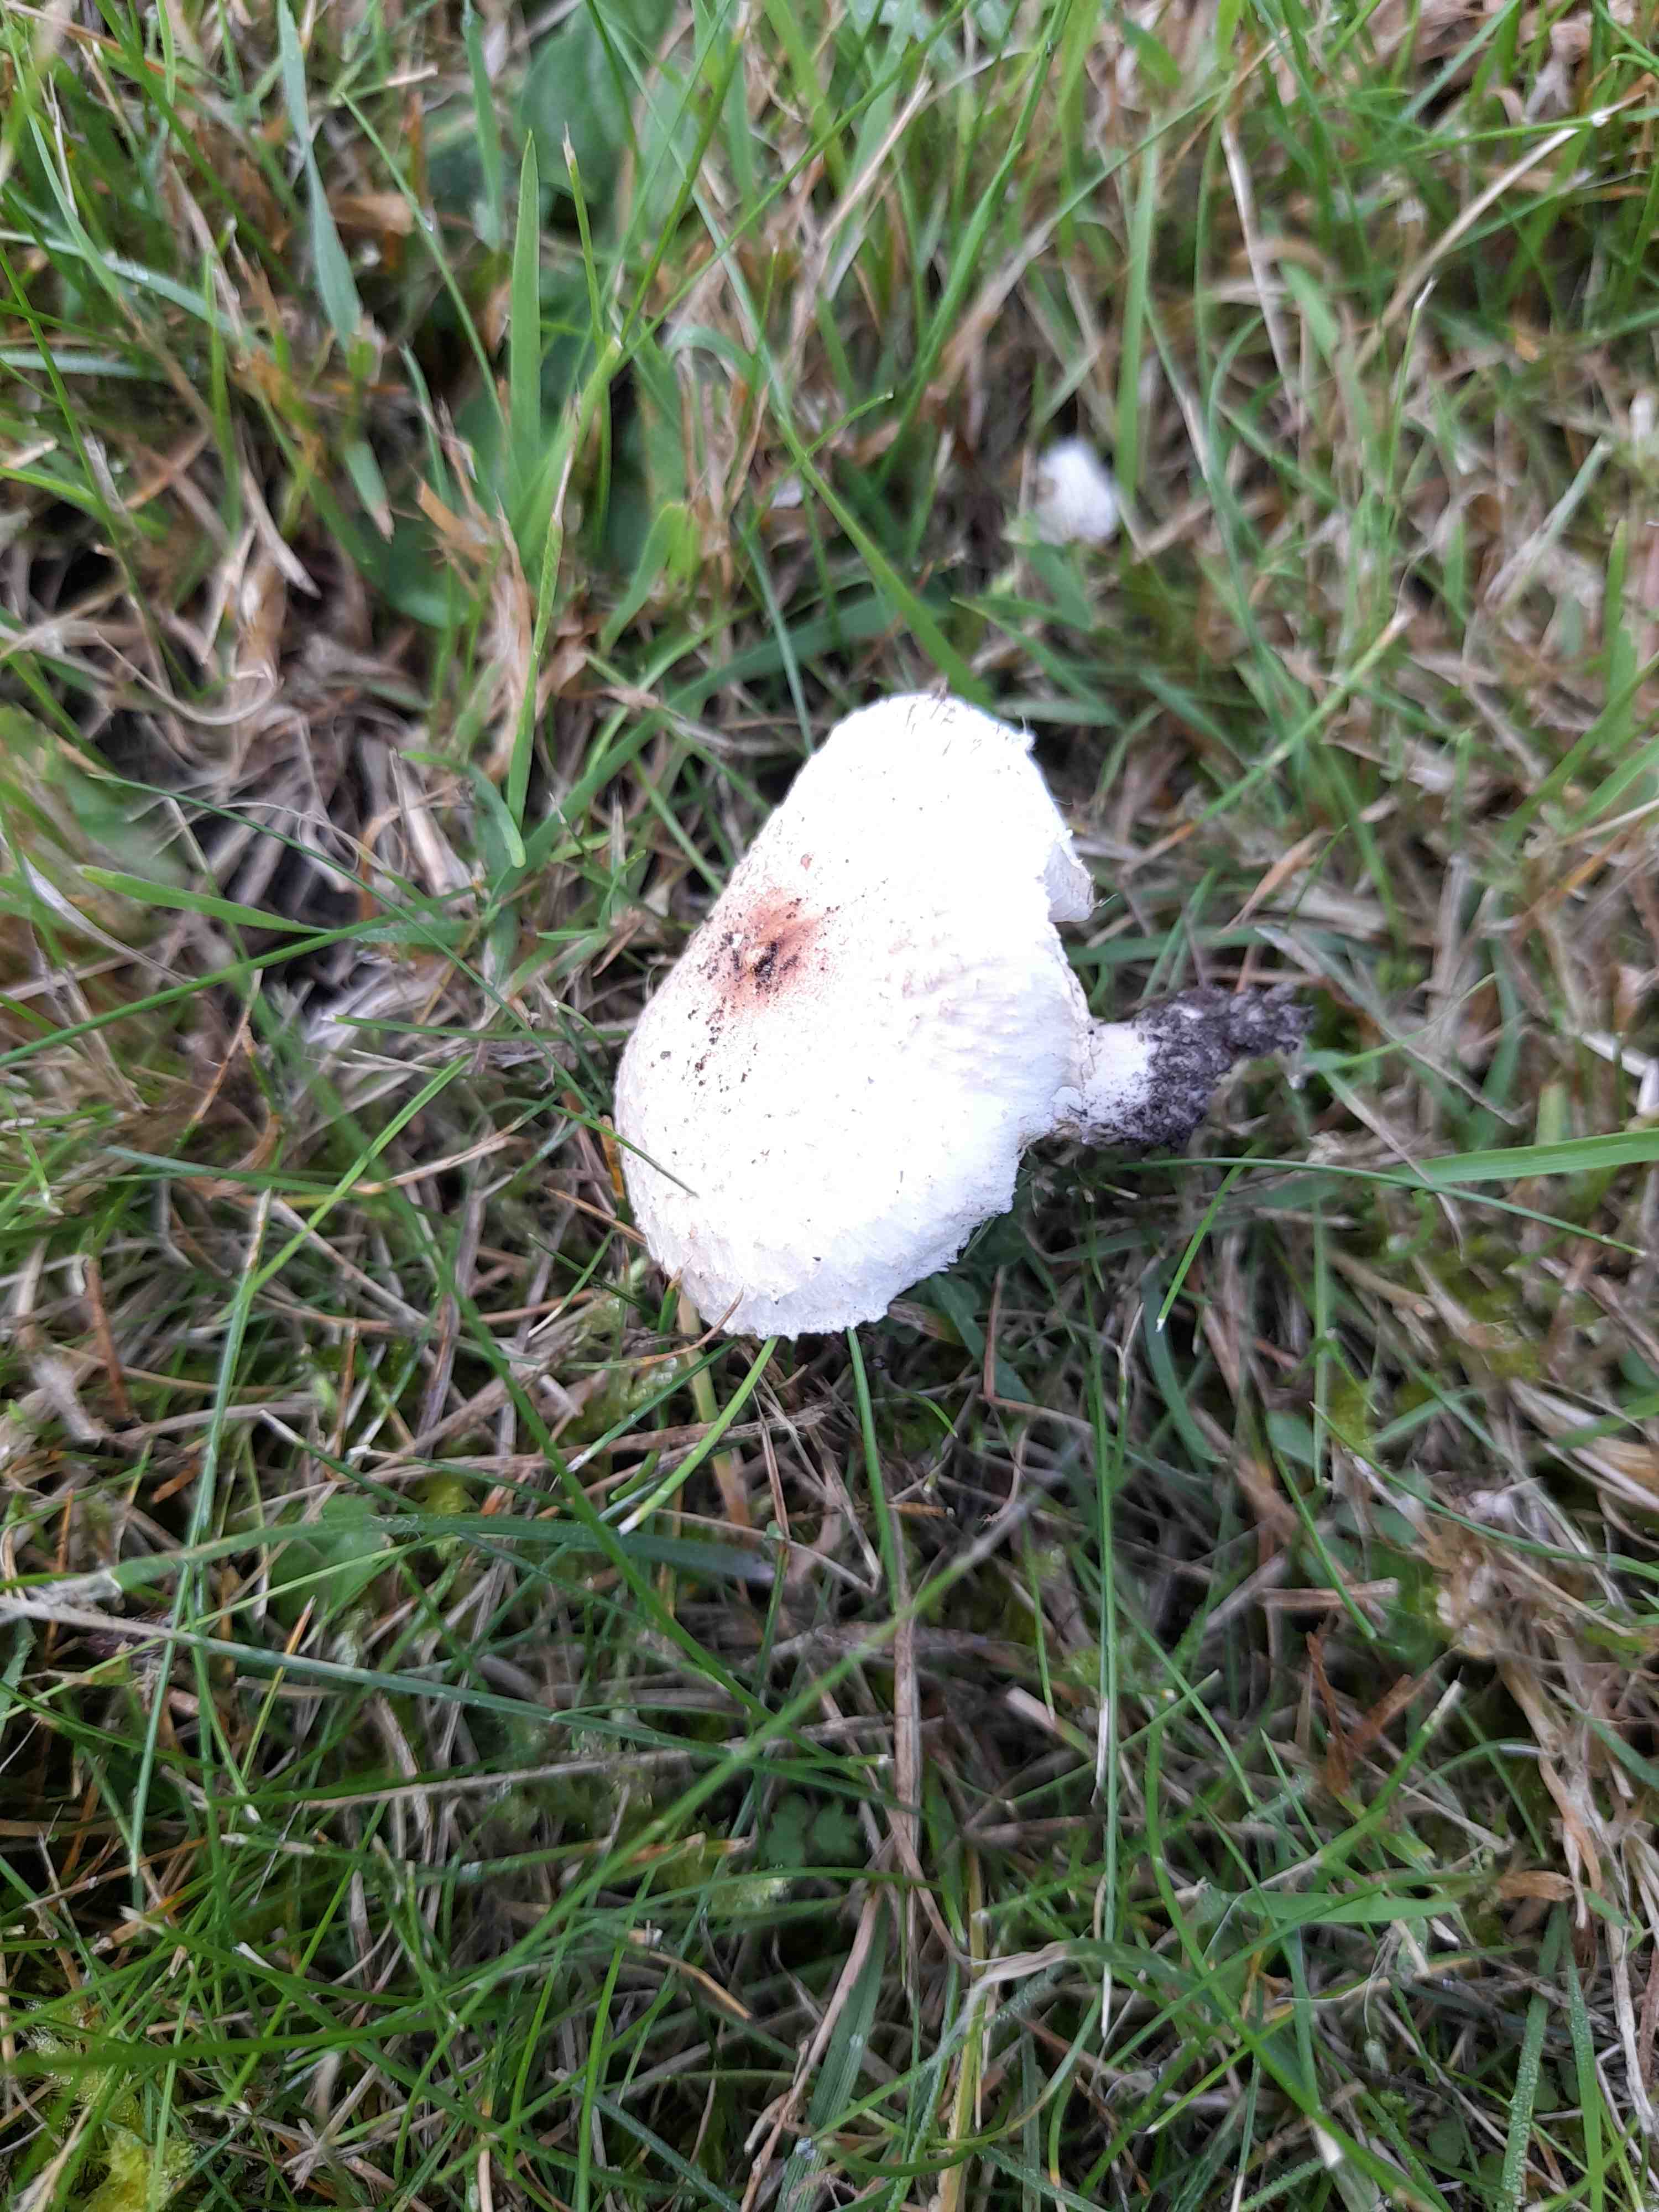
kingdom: Fungi
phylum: Basidiomycota
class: Agaricomycetes
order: Agaricales
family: Agaricaceae
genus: Lepiota
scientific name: Lepiota cristata
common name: stinkende parasolhat
